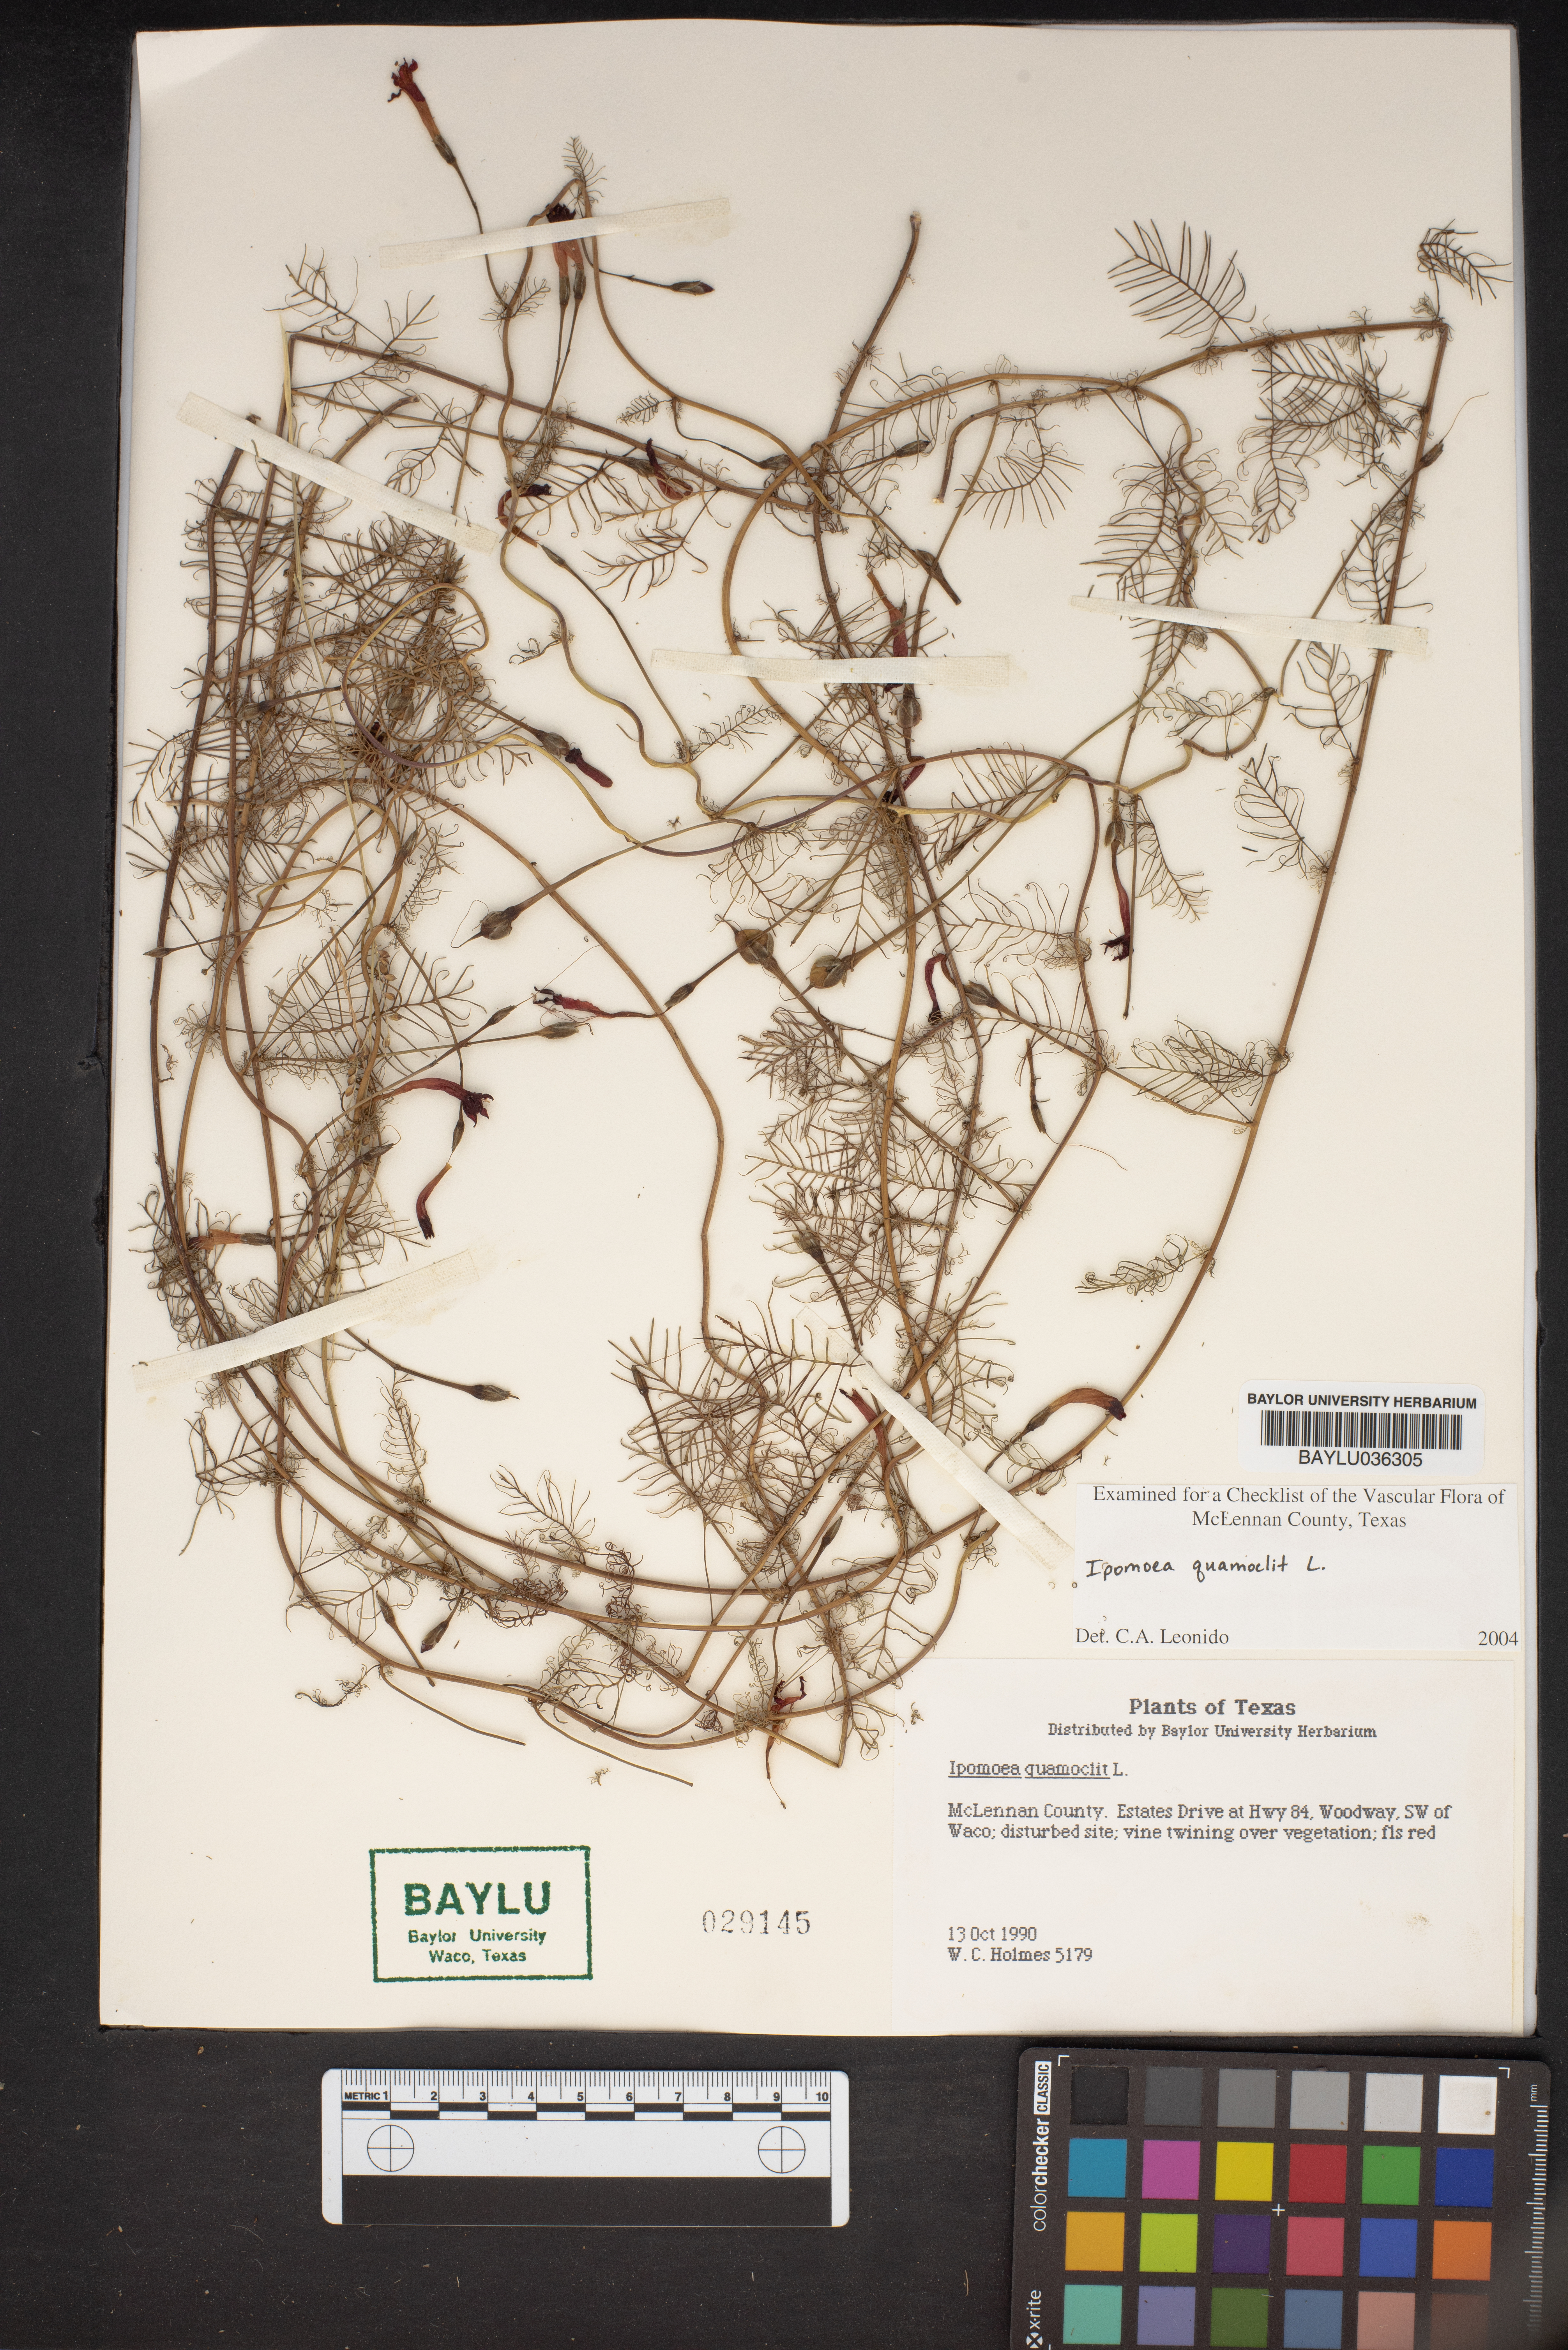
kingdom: Plantae
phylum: Tracheophyta
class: Magnoliopsida
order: Solanales
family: Convolvulaceae
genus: Ipomoea
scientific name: Ipomoea quamoclit
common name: Cypress vine
